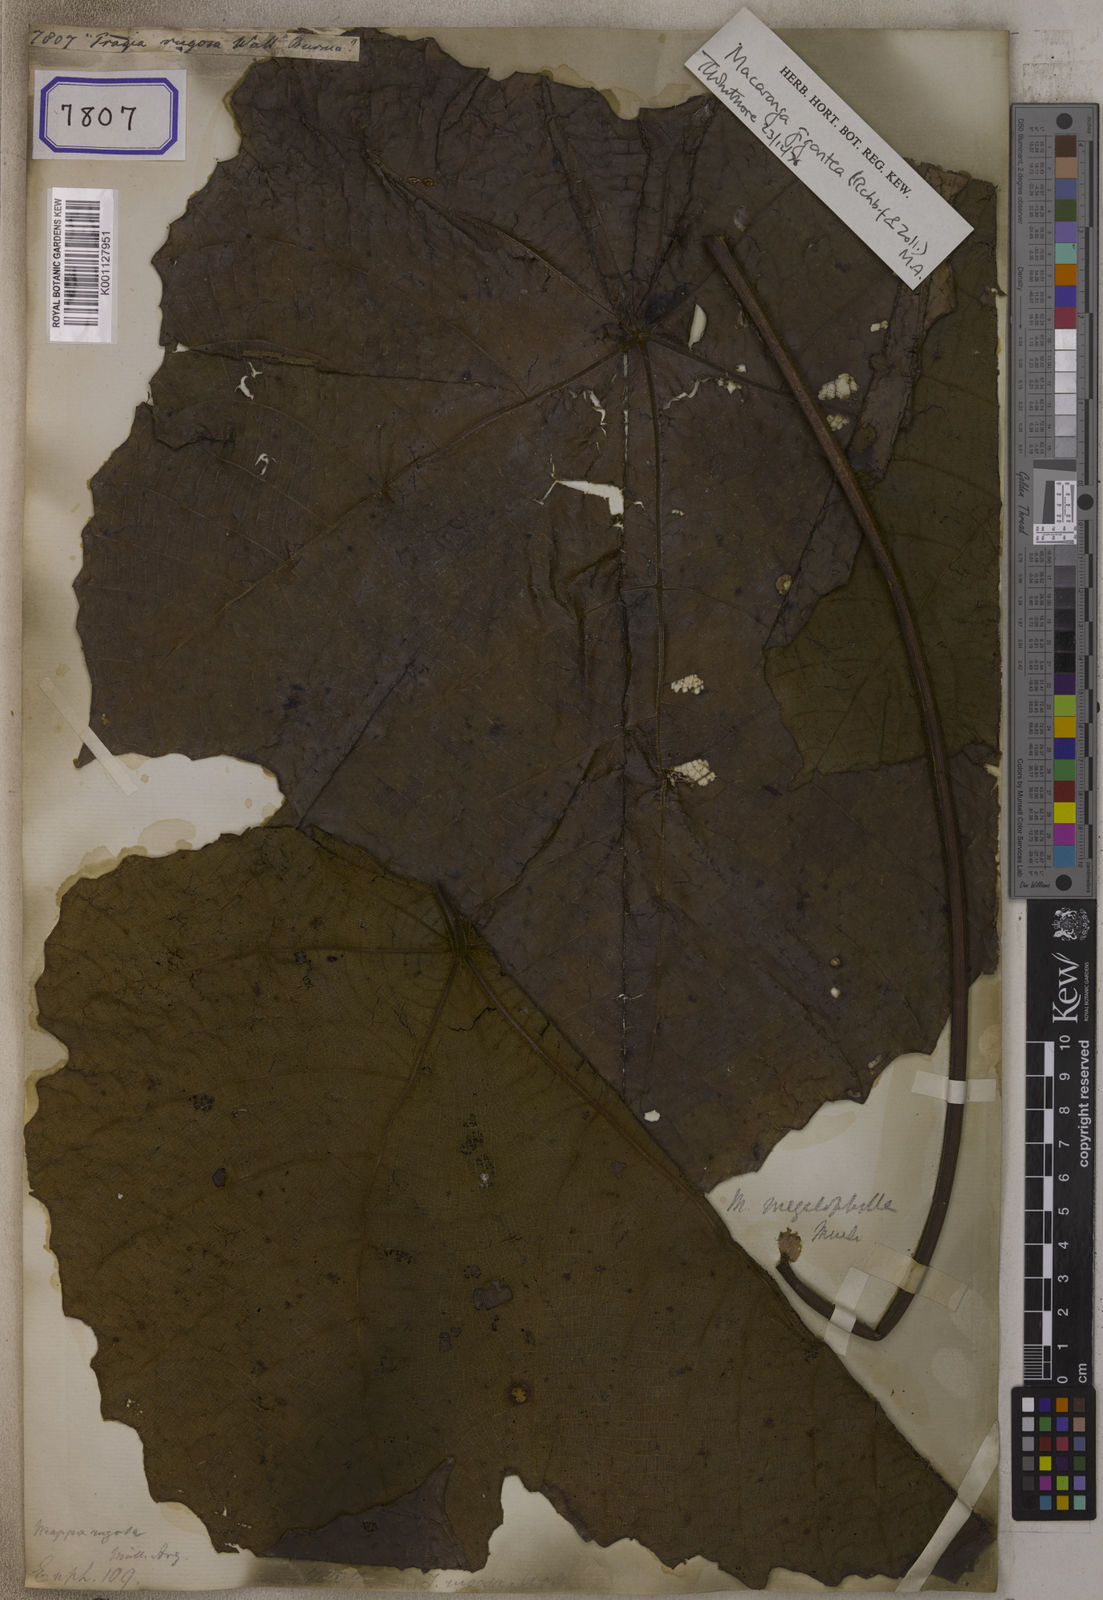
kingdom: Plantae
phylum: Tracheophyta
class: Magnoliopsida
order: Malpighiales
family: Euphorbiaceae
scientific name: Euphorbiaceae
